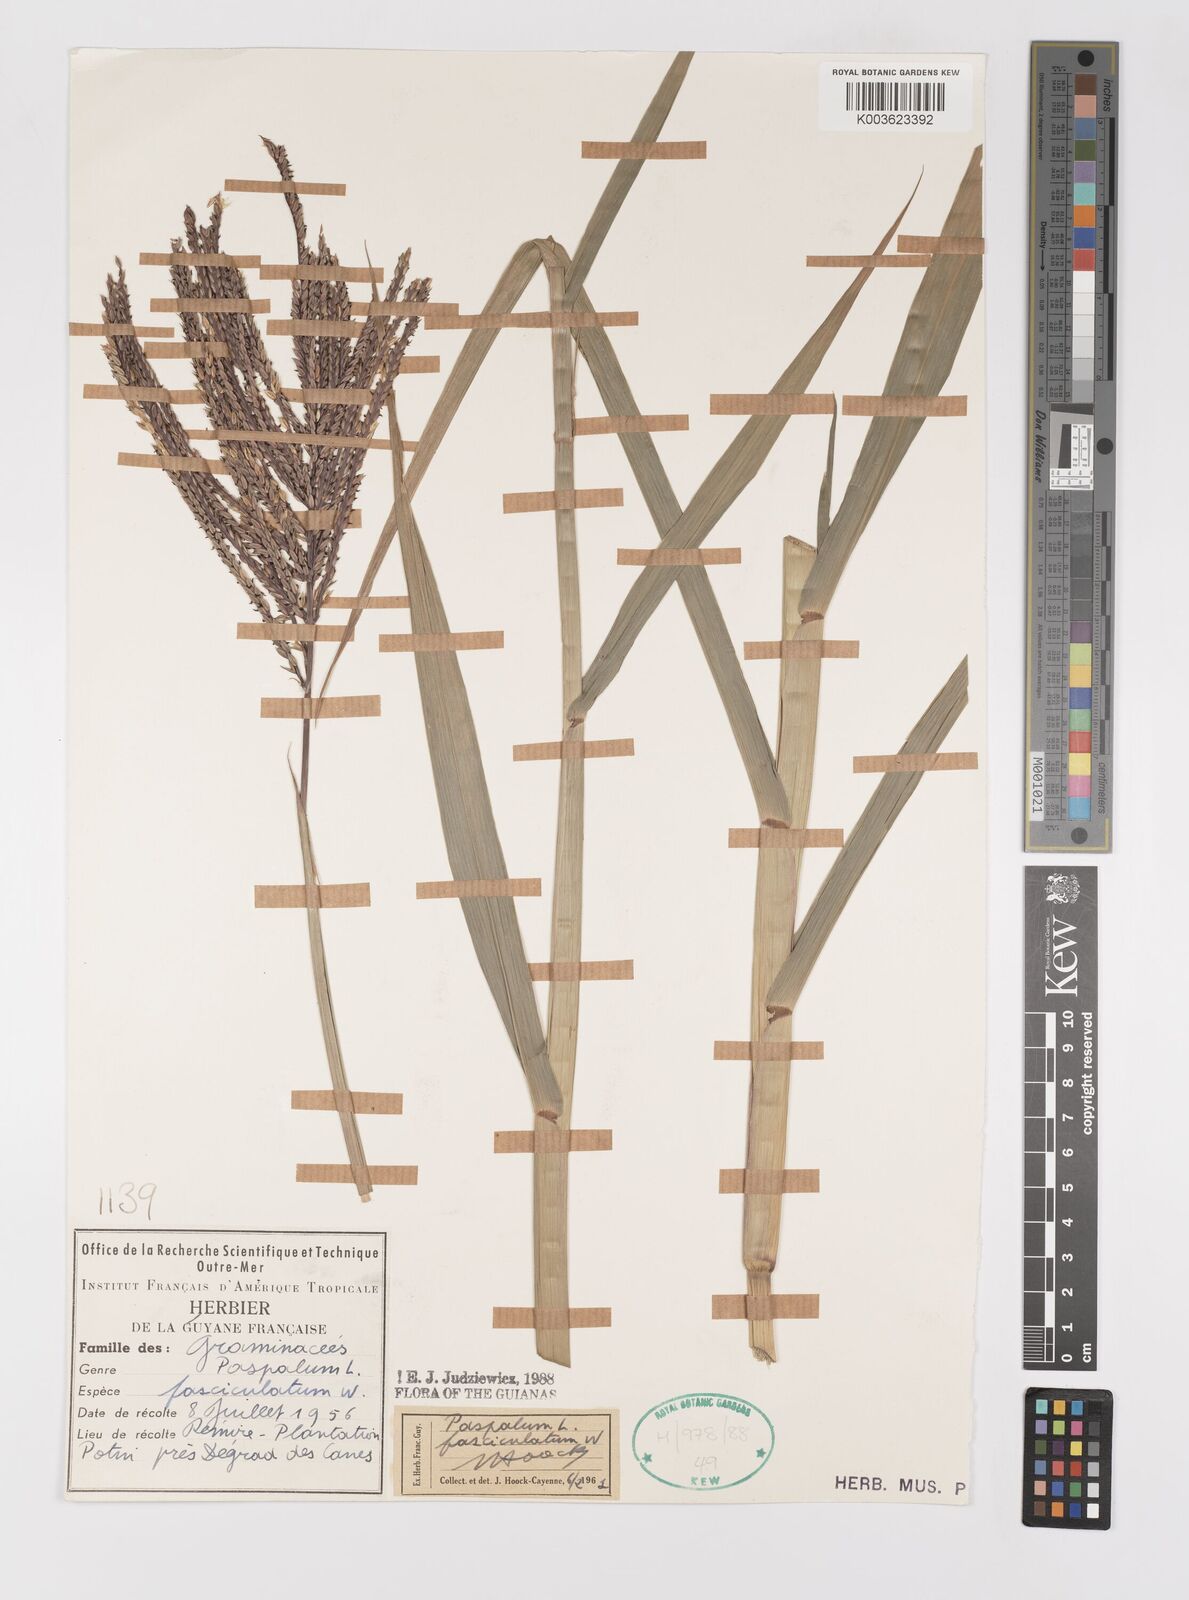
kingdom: Plantae
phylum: Tracheophyta
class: Liliopsida
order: Poales
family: Poaceae
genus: Paspalum
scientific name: Paspalum fasciculatum
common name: Bamboo grass
